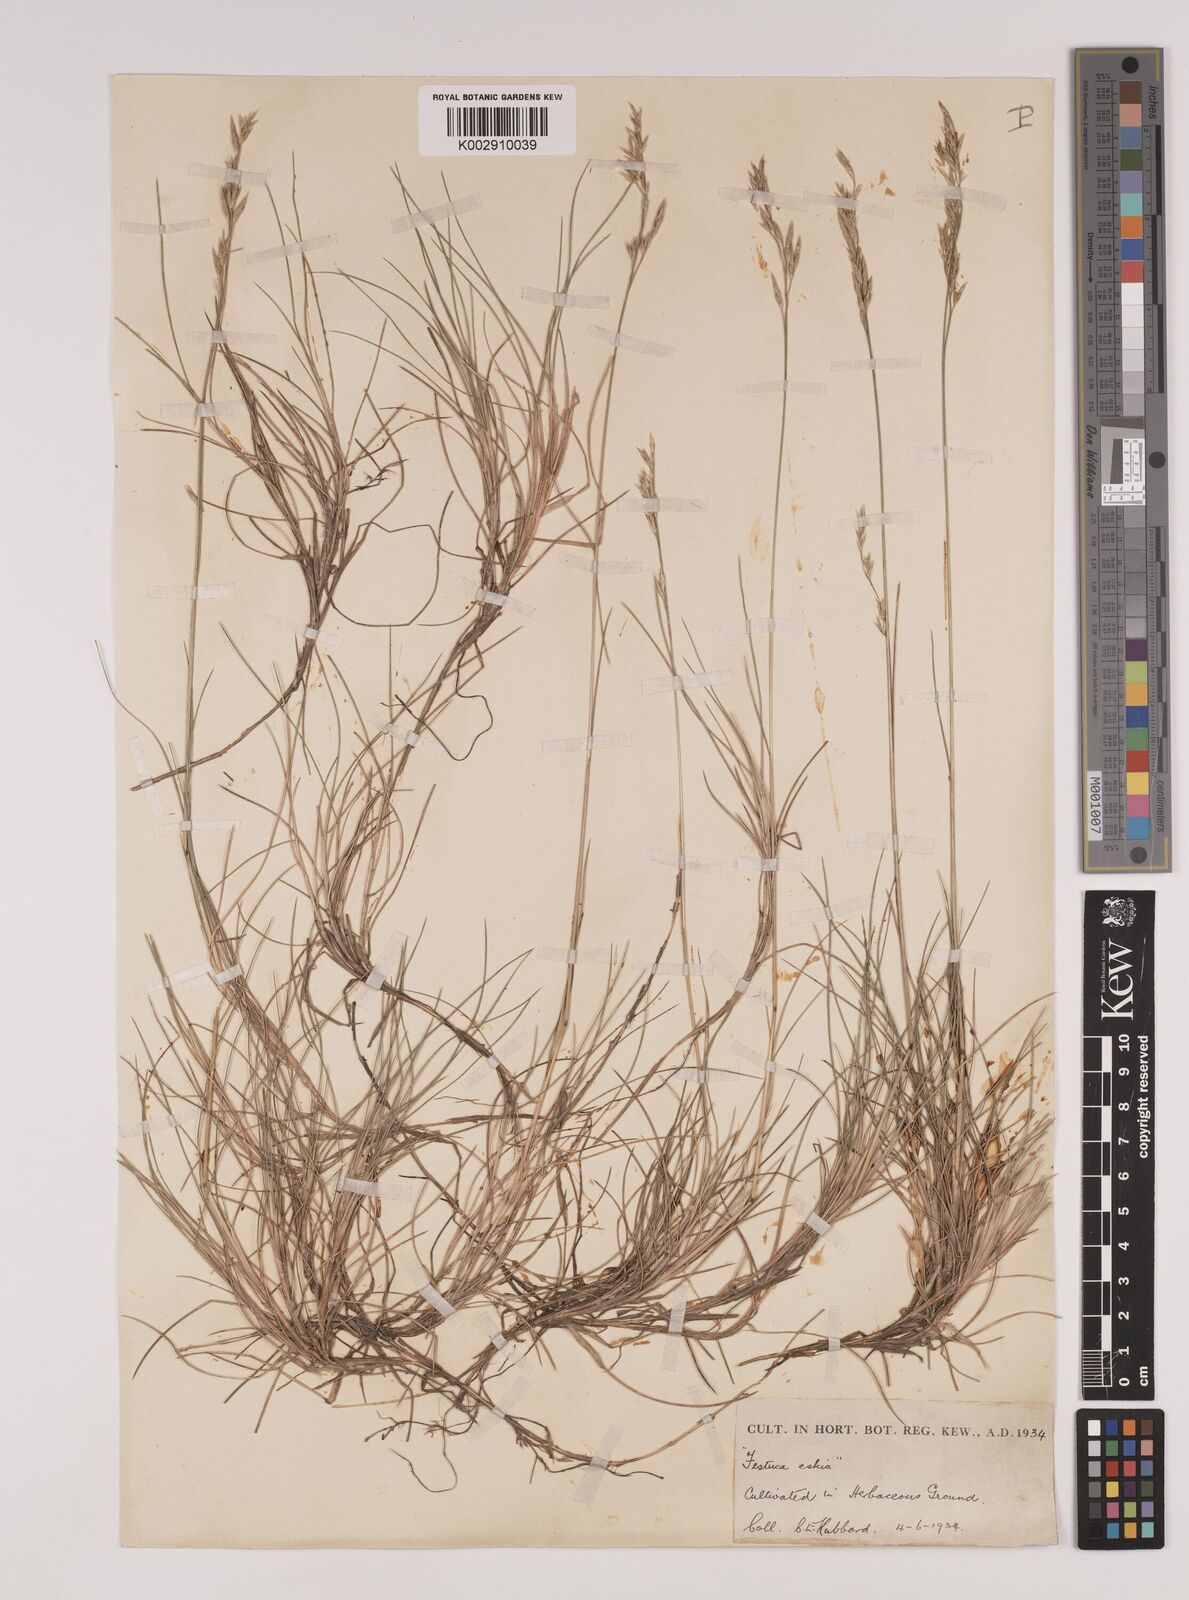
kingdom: Plantae
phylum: Tracheophyta
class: Liliopsida
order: Poales
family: Poaceae
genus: Festuca
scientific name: Festuca gautieri
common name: Spiky fescue
